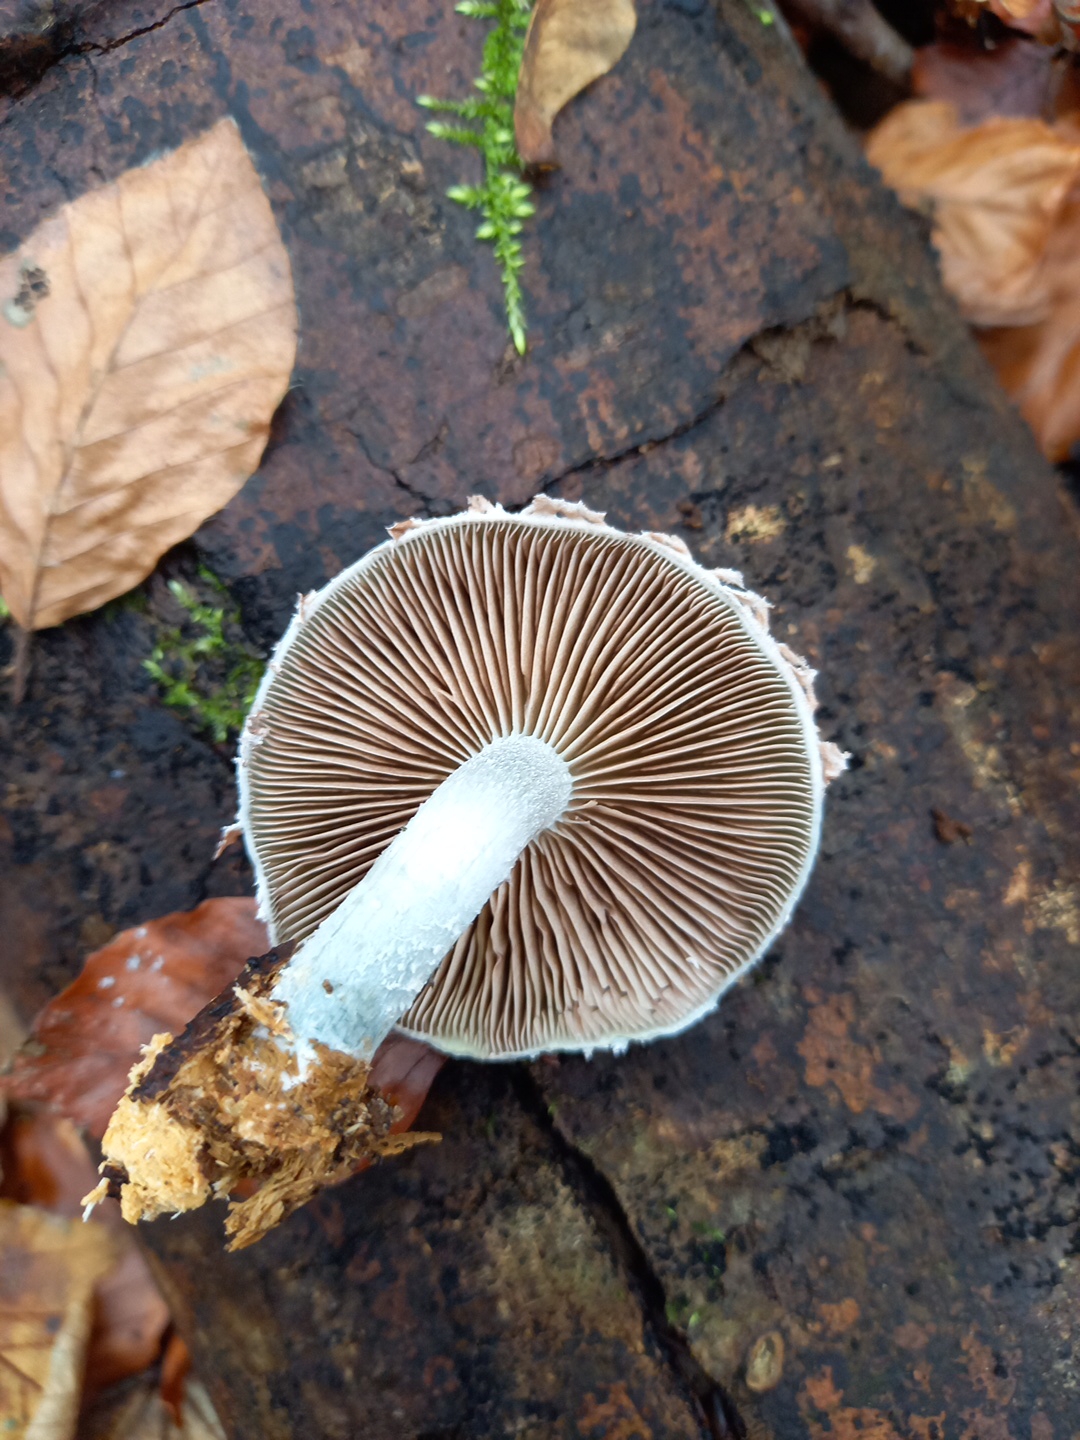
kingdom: Fungi
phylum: Basidiomycota
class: Agaricomycetes
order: Agaricales
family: Strophariaceae
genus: Stropharia
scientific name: Stropharia cyanea
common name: blågrøn bredblad
